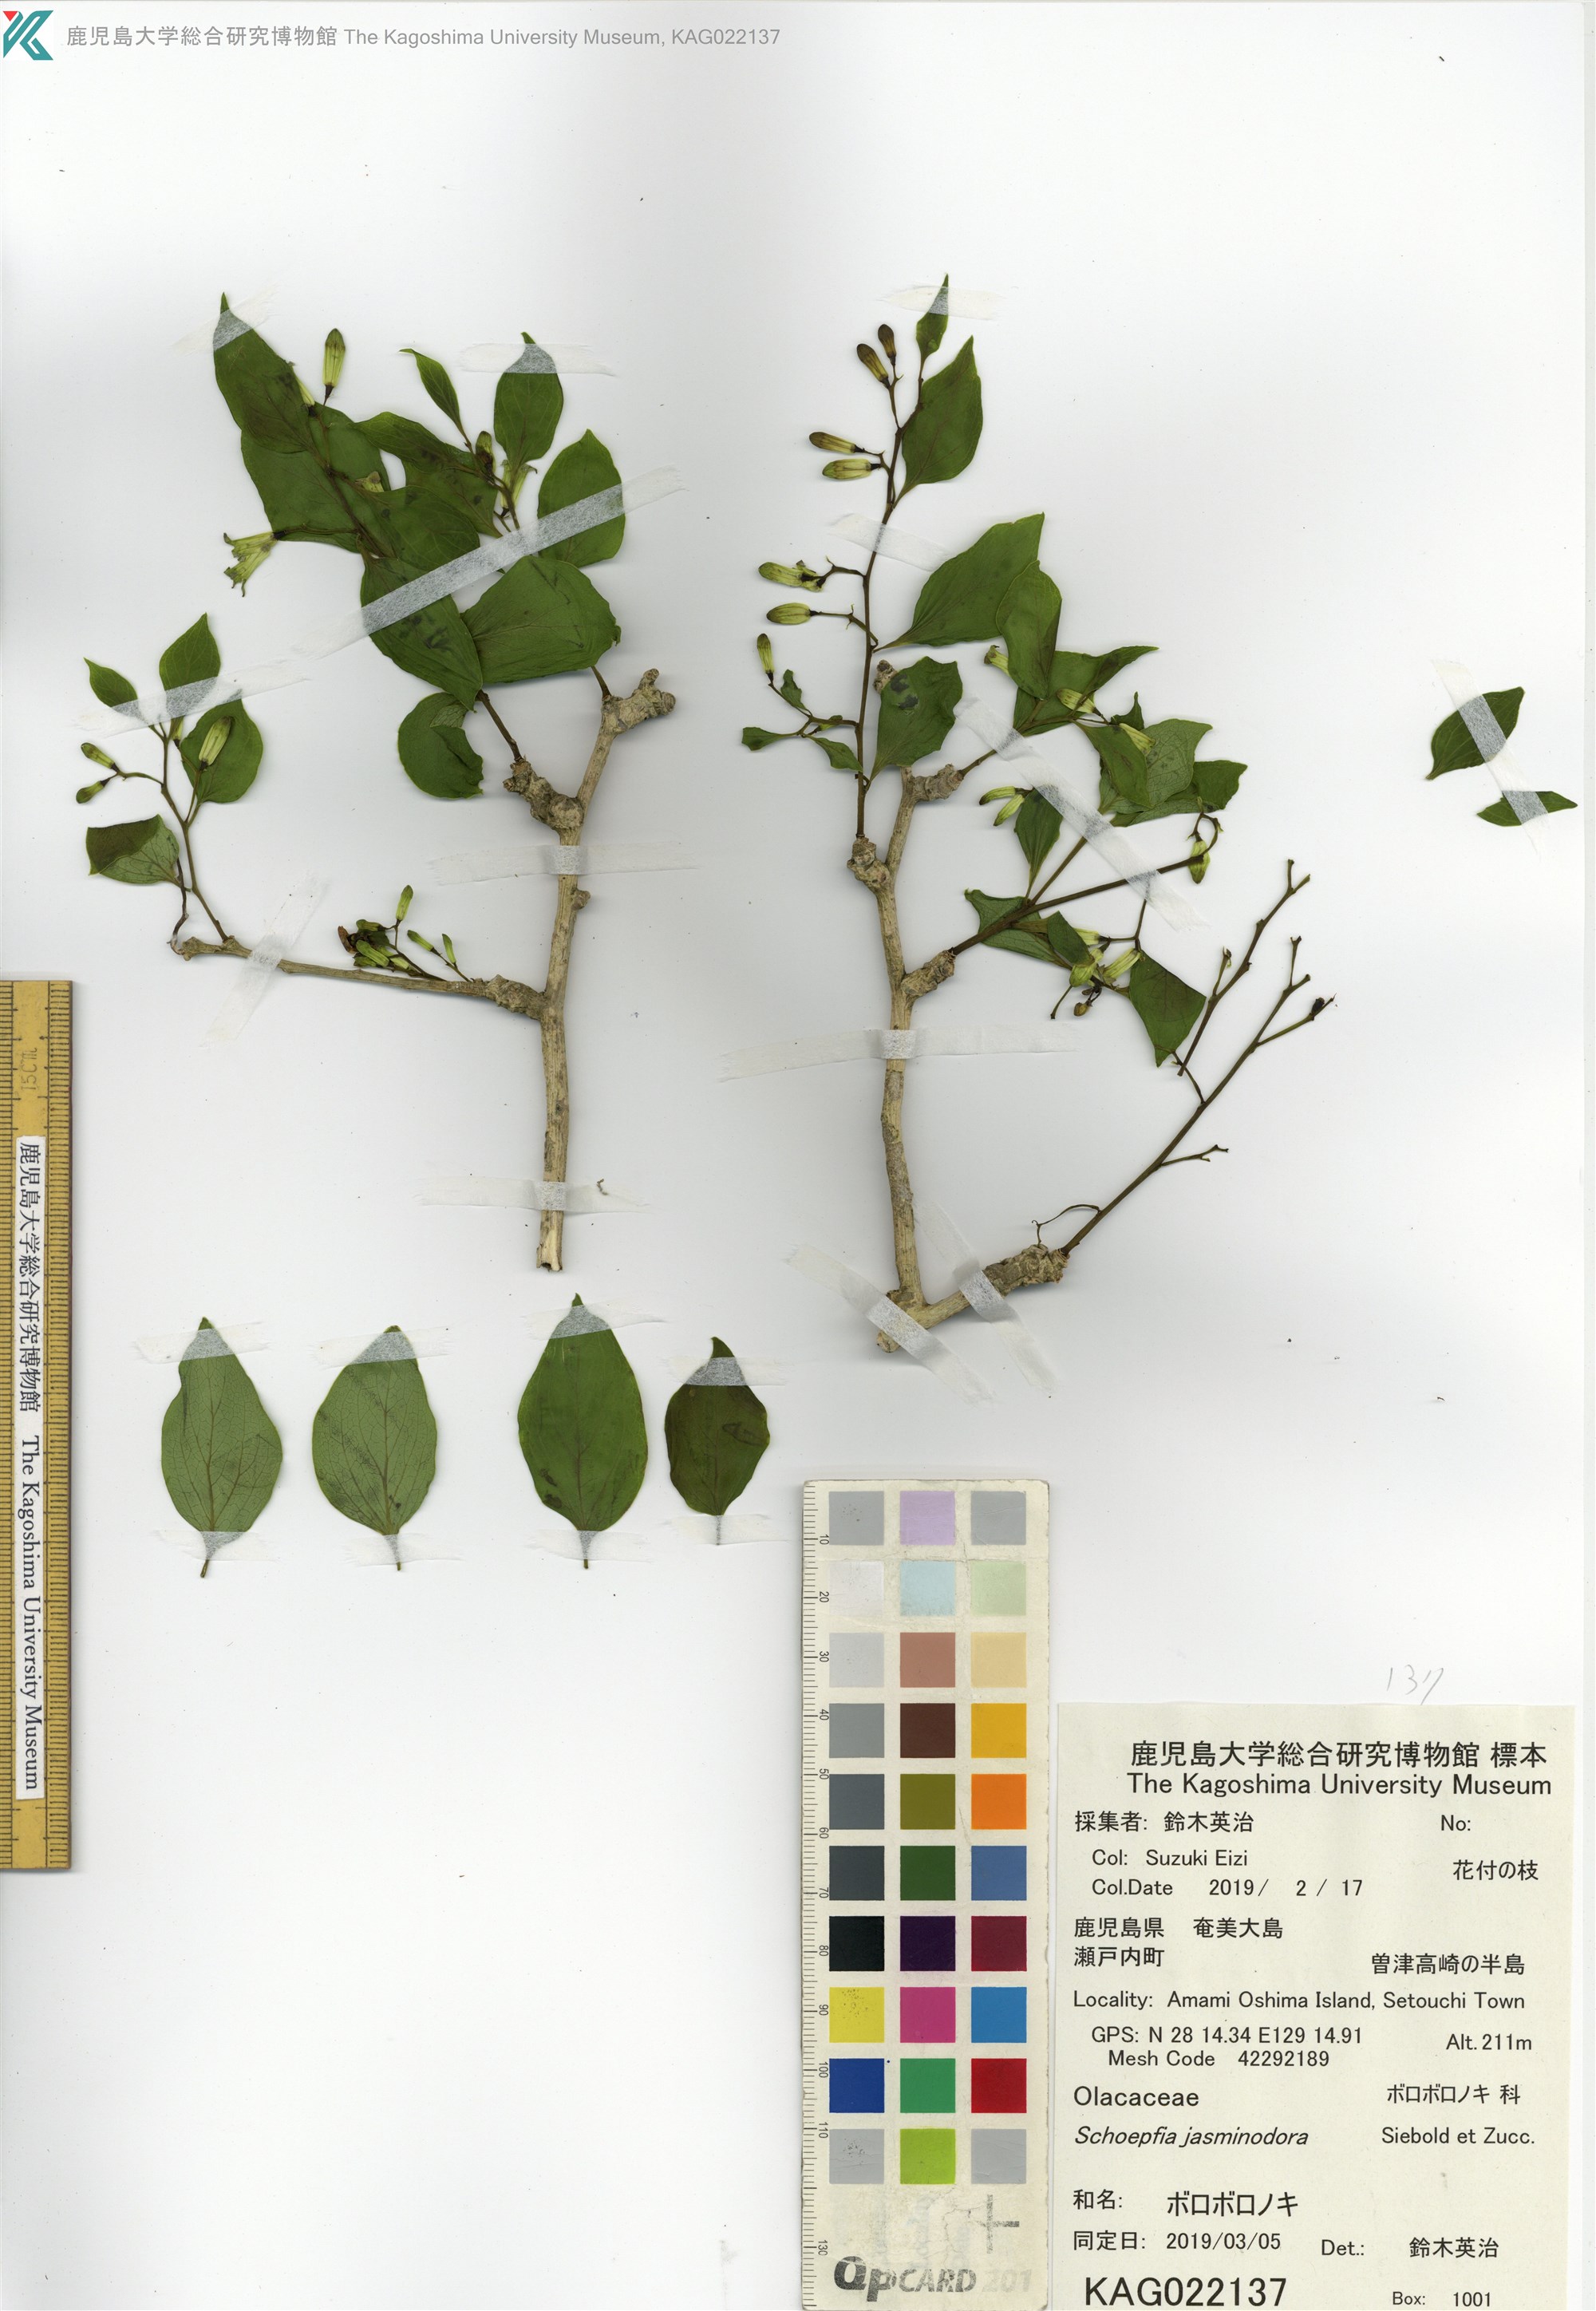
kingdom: Plantae
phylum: Tracheophyta
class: Magnoliopsida
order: Santalales
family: Schoepfiaceae
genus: Schoepfia
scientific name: Schoepfia jasminodora
